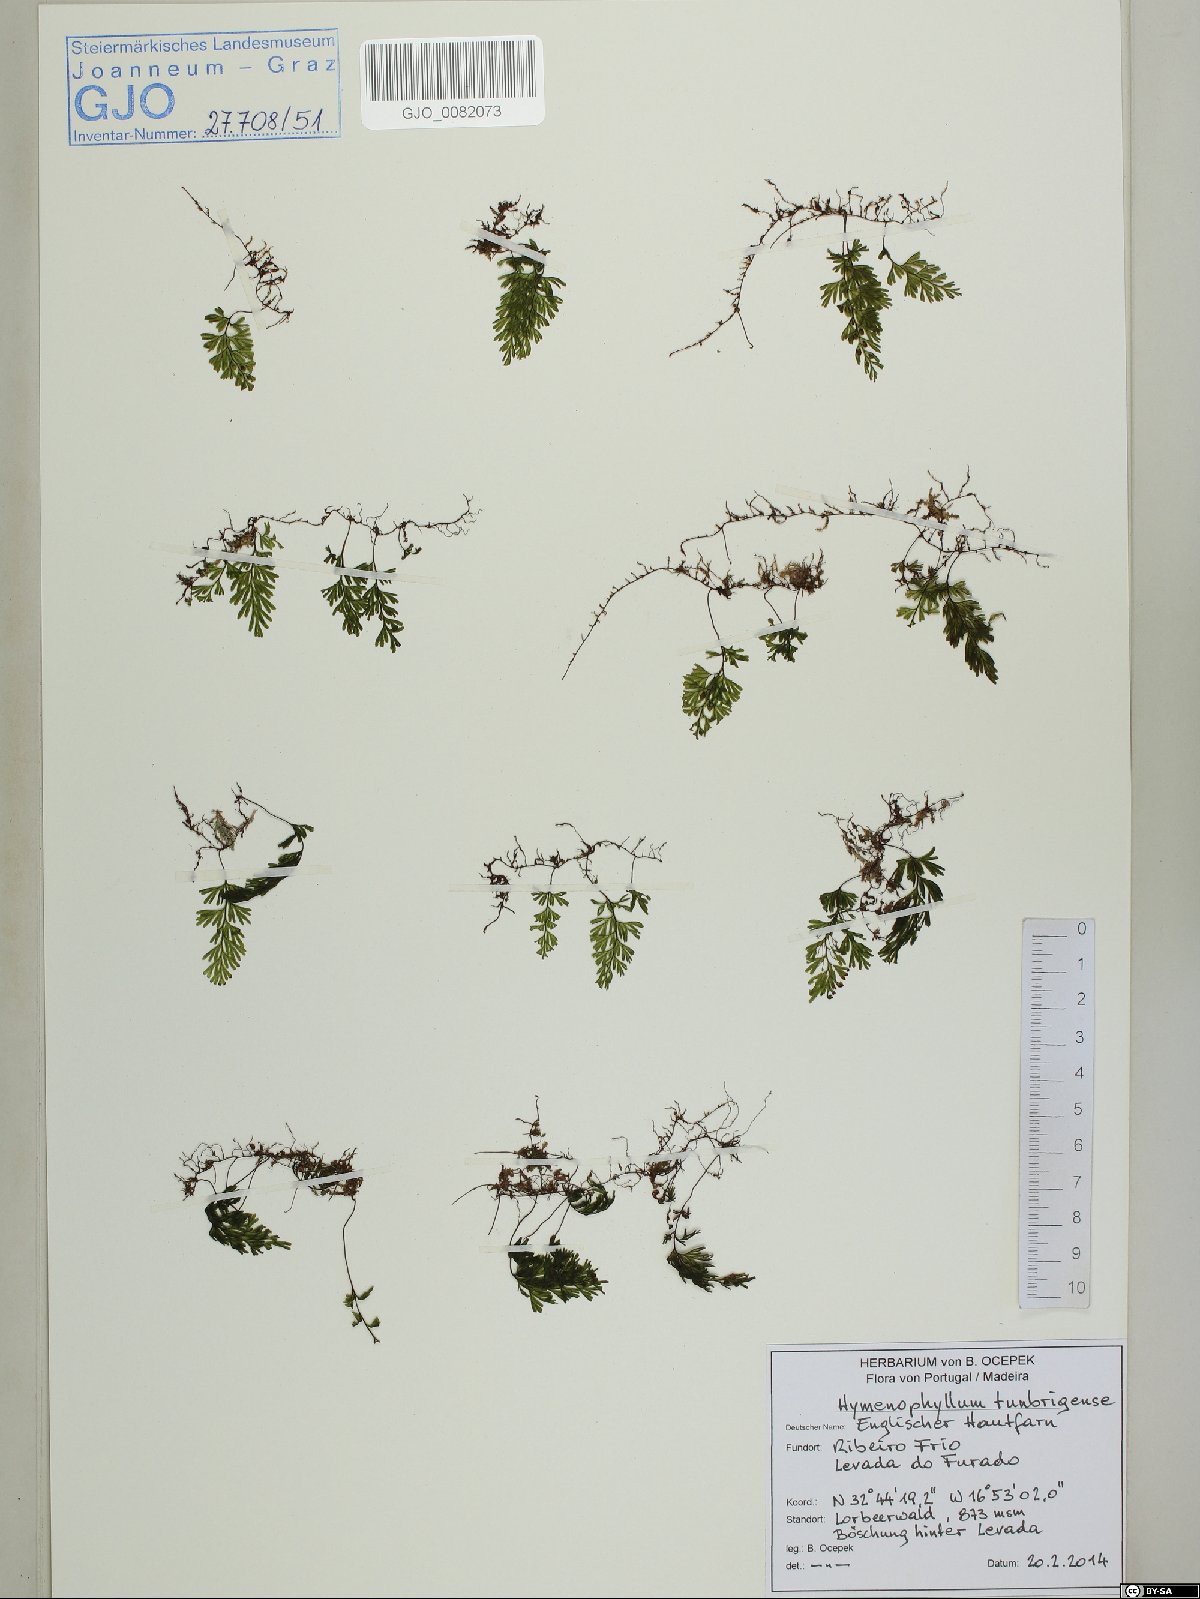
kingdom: Plantae
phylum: Tracheophyta
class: Polypodiopsida
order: Hymenophyllales
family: Hymenophyllaceae
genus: Hymenophyllum
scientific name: Hymenophyllum tunbrigense
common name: Tunbridge filmy fern
